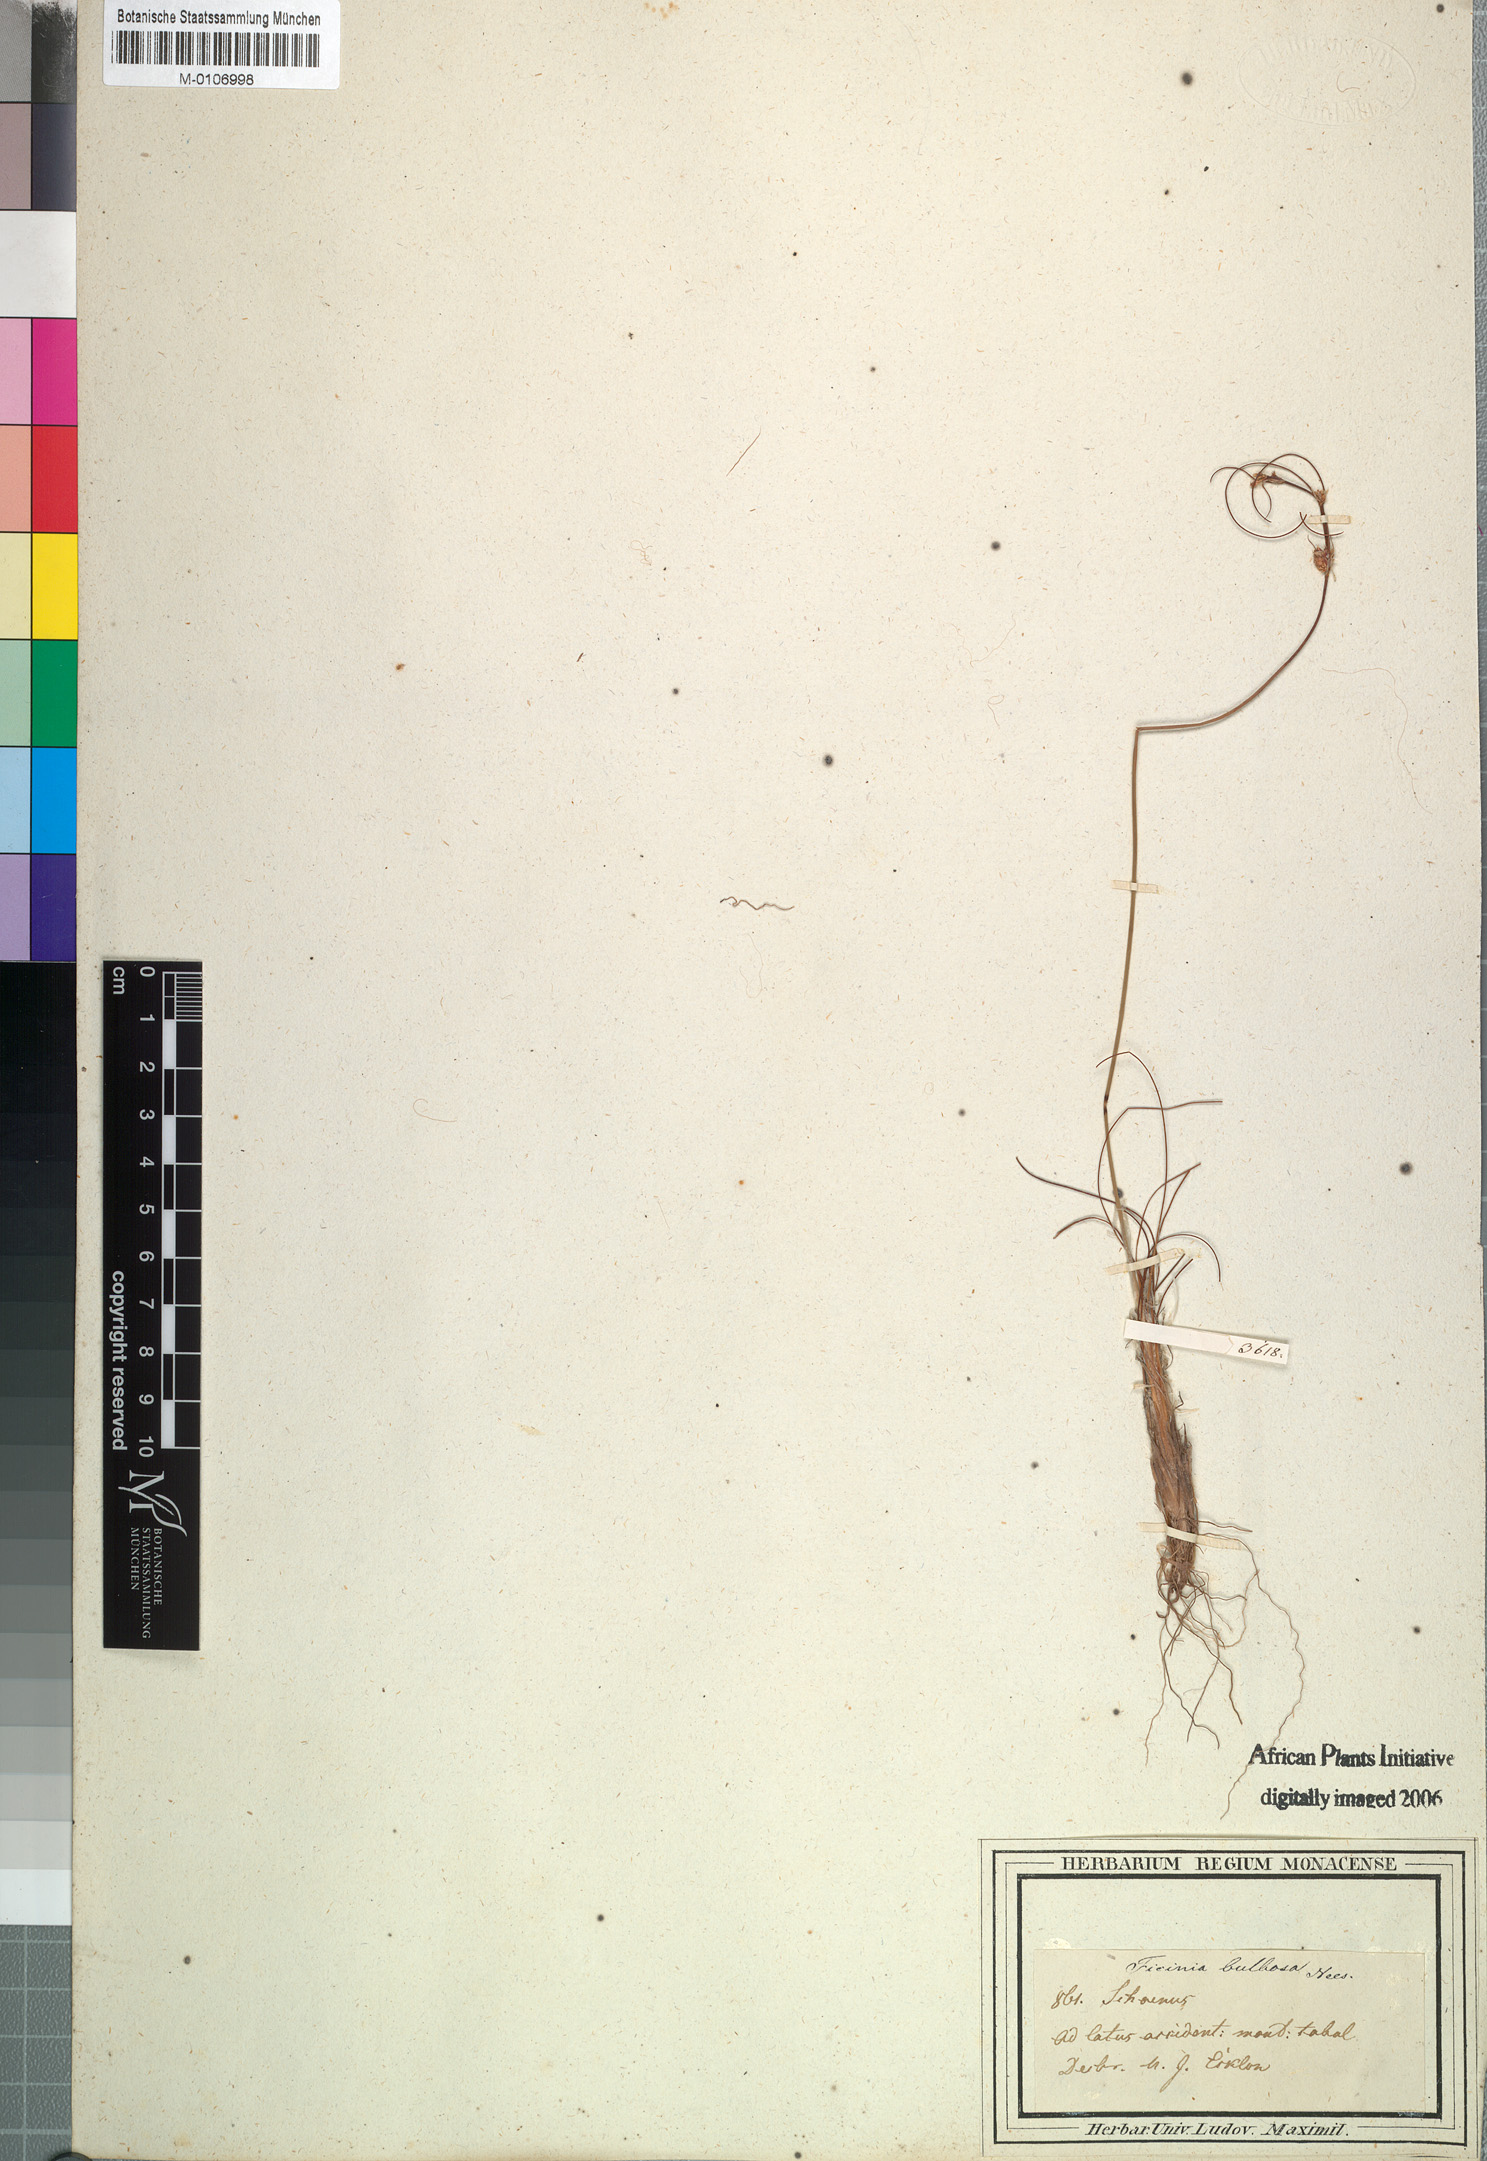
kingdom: Plantae
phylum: Tracheophyta
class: Liliopsida
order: Poales
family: Cyperaceae
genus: Ficinia
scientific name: Ficinia bulbosa
